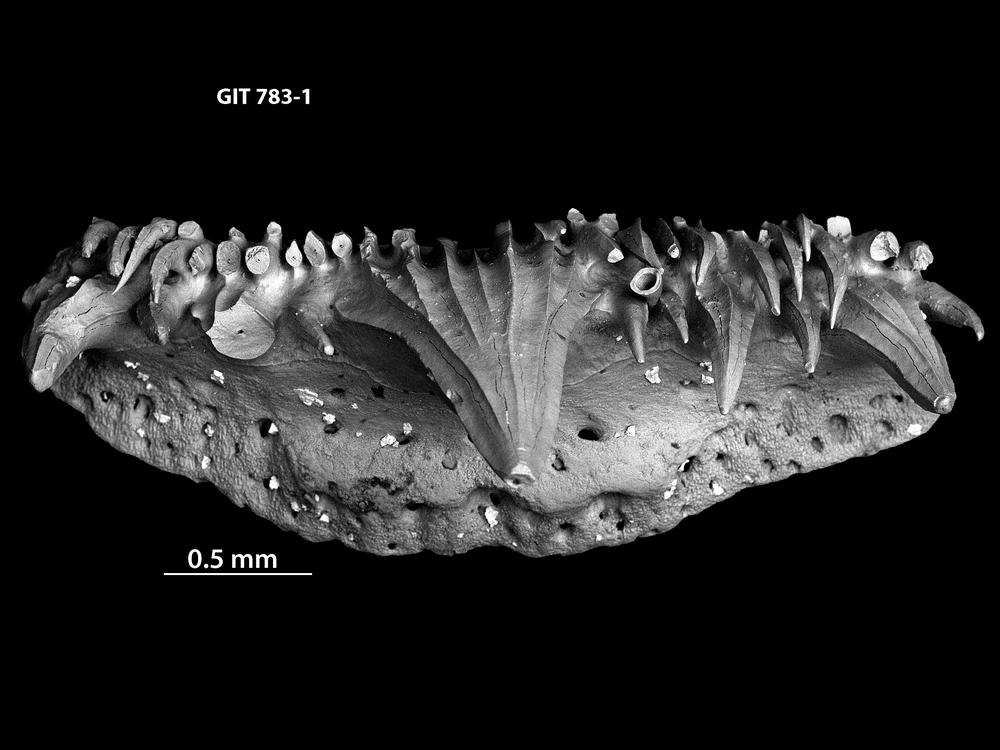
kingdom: Animalia
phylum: Chordata
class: Elasmobranchii
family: Tamiobatidae
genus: Tamiobatis
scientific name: Tamiobatis
